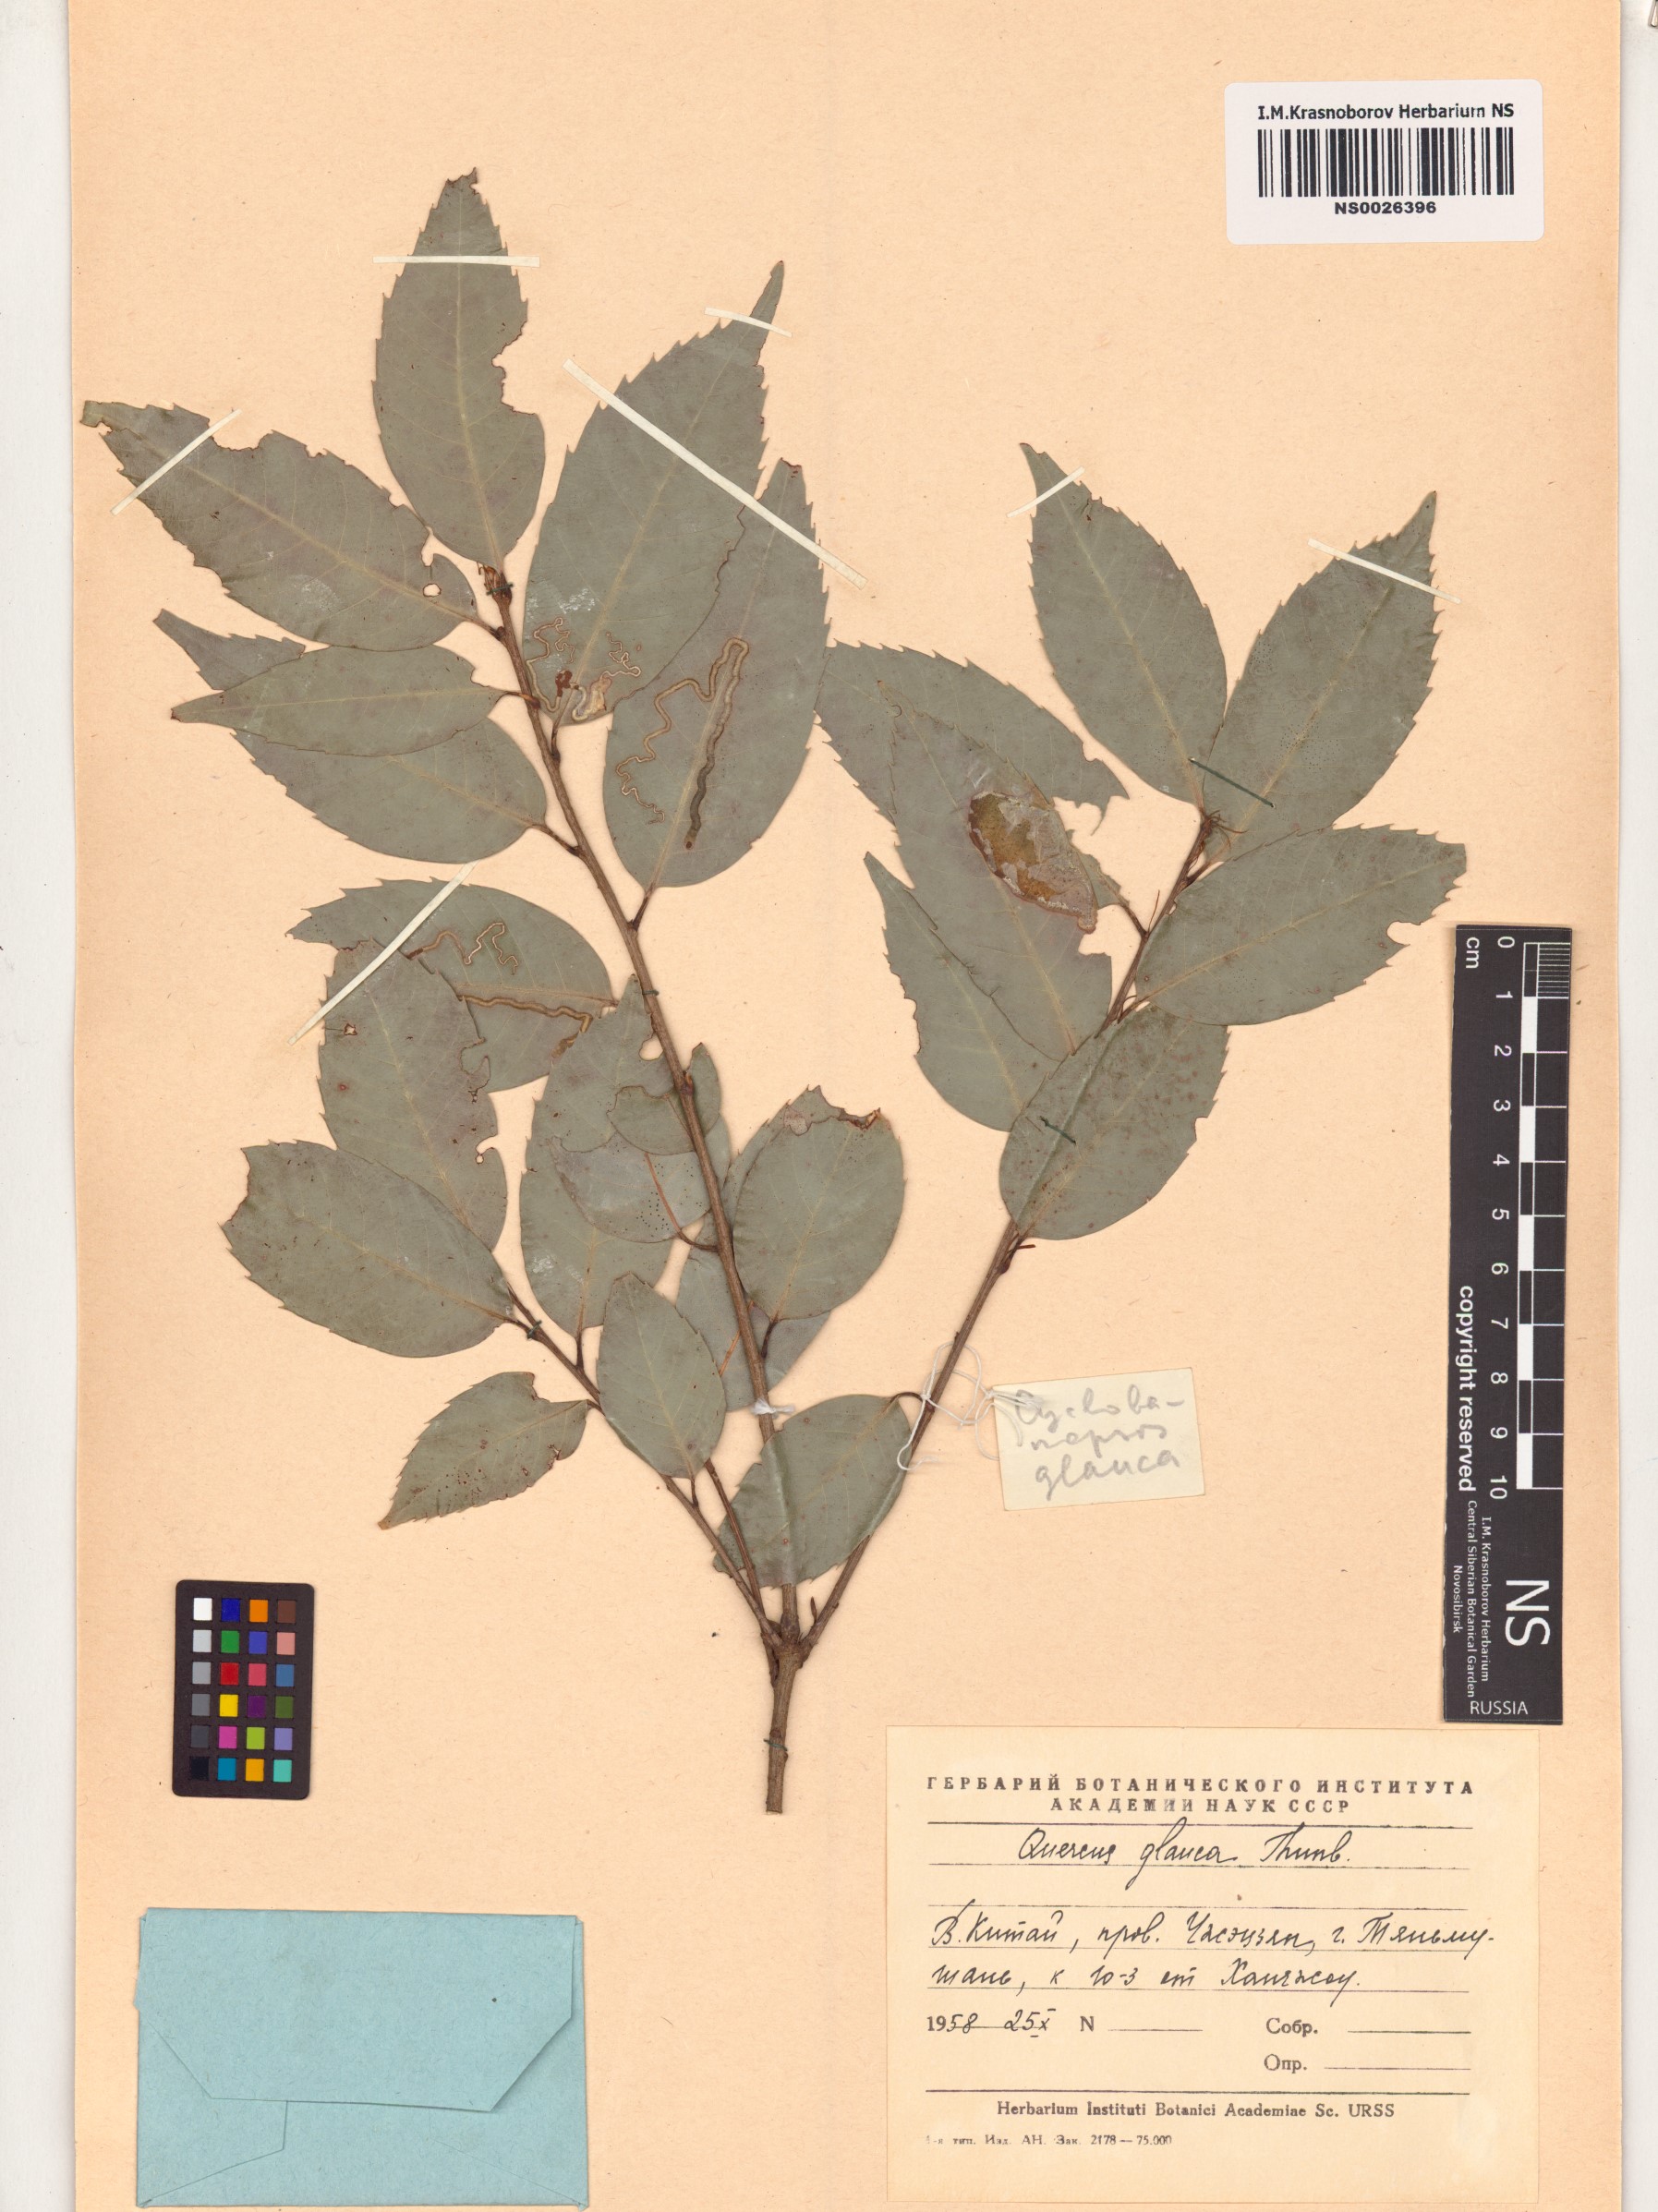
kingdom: Plantae
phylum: Tracheophyta
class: Magnoliopsida
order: Fagales
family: Fagaceae
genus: Quercus
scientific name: Quercus glauca
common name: Ring-cup oak
